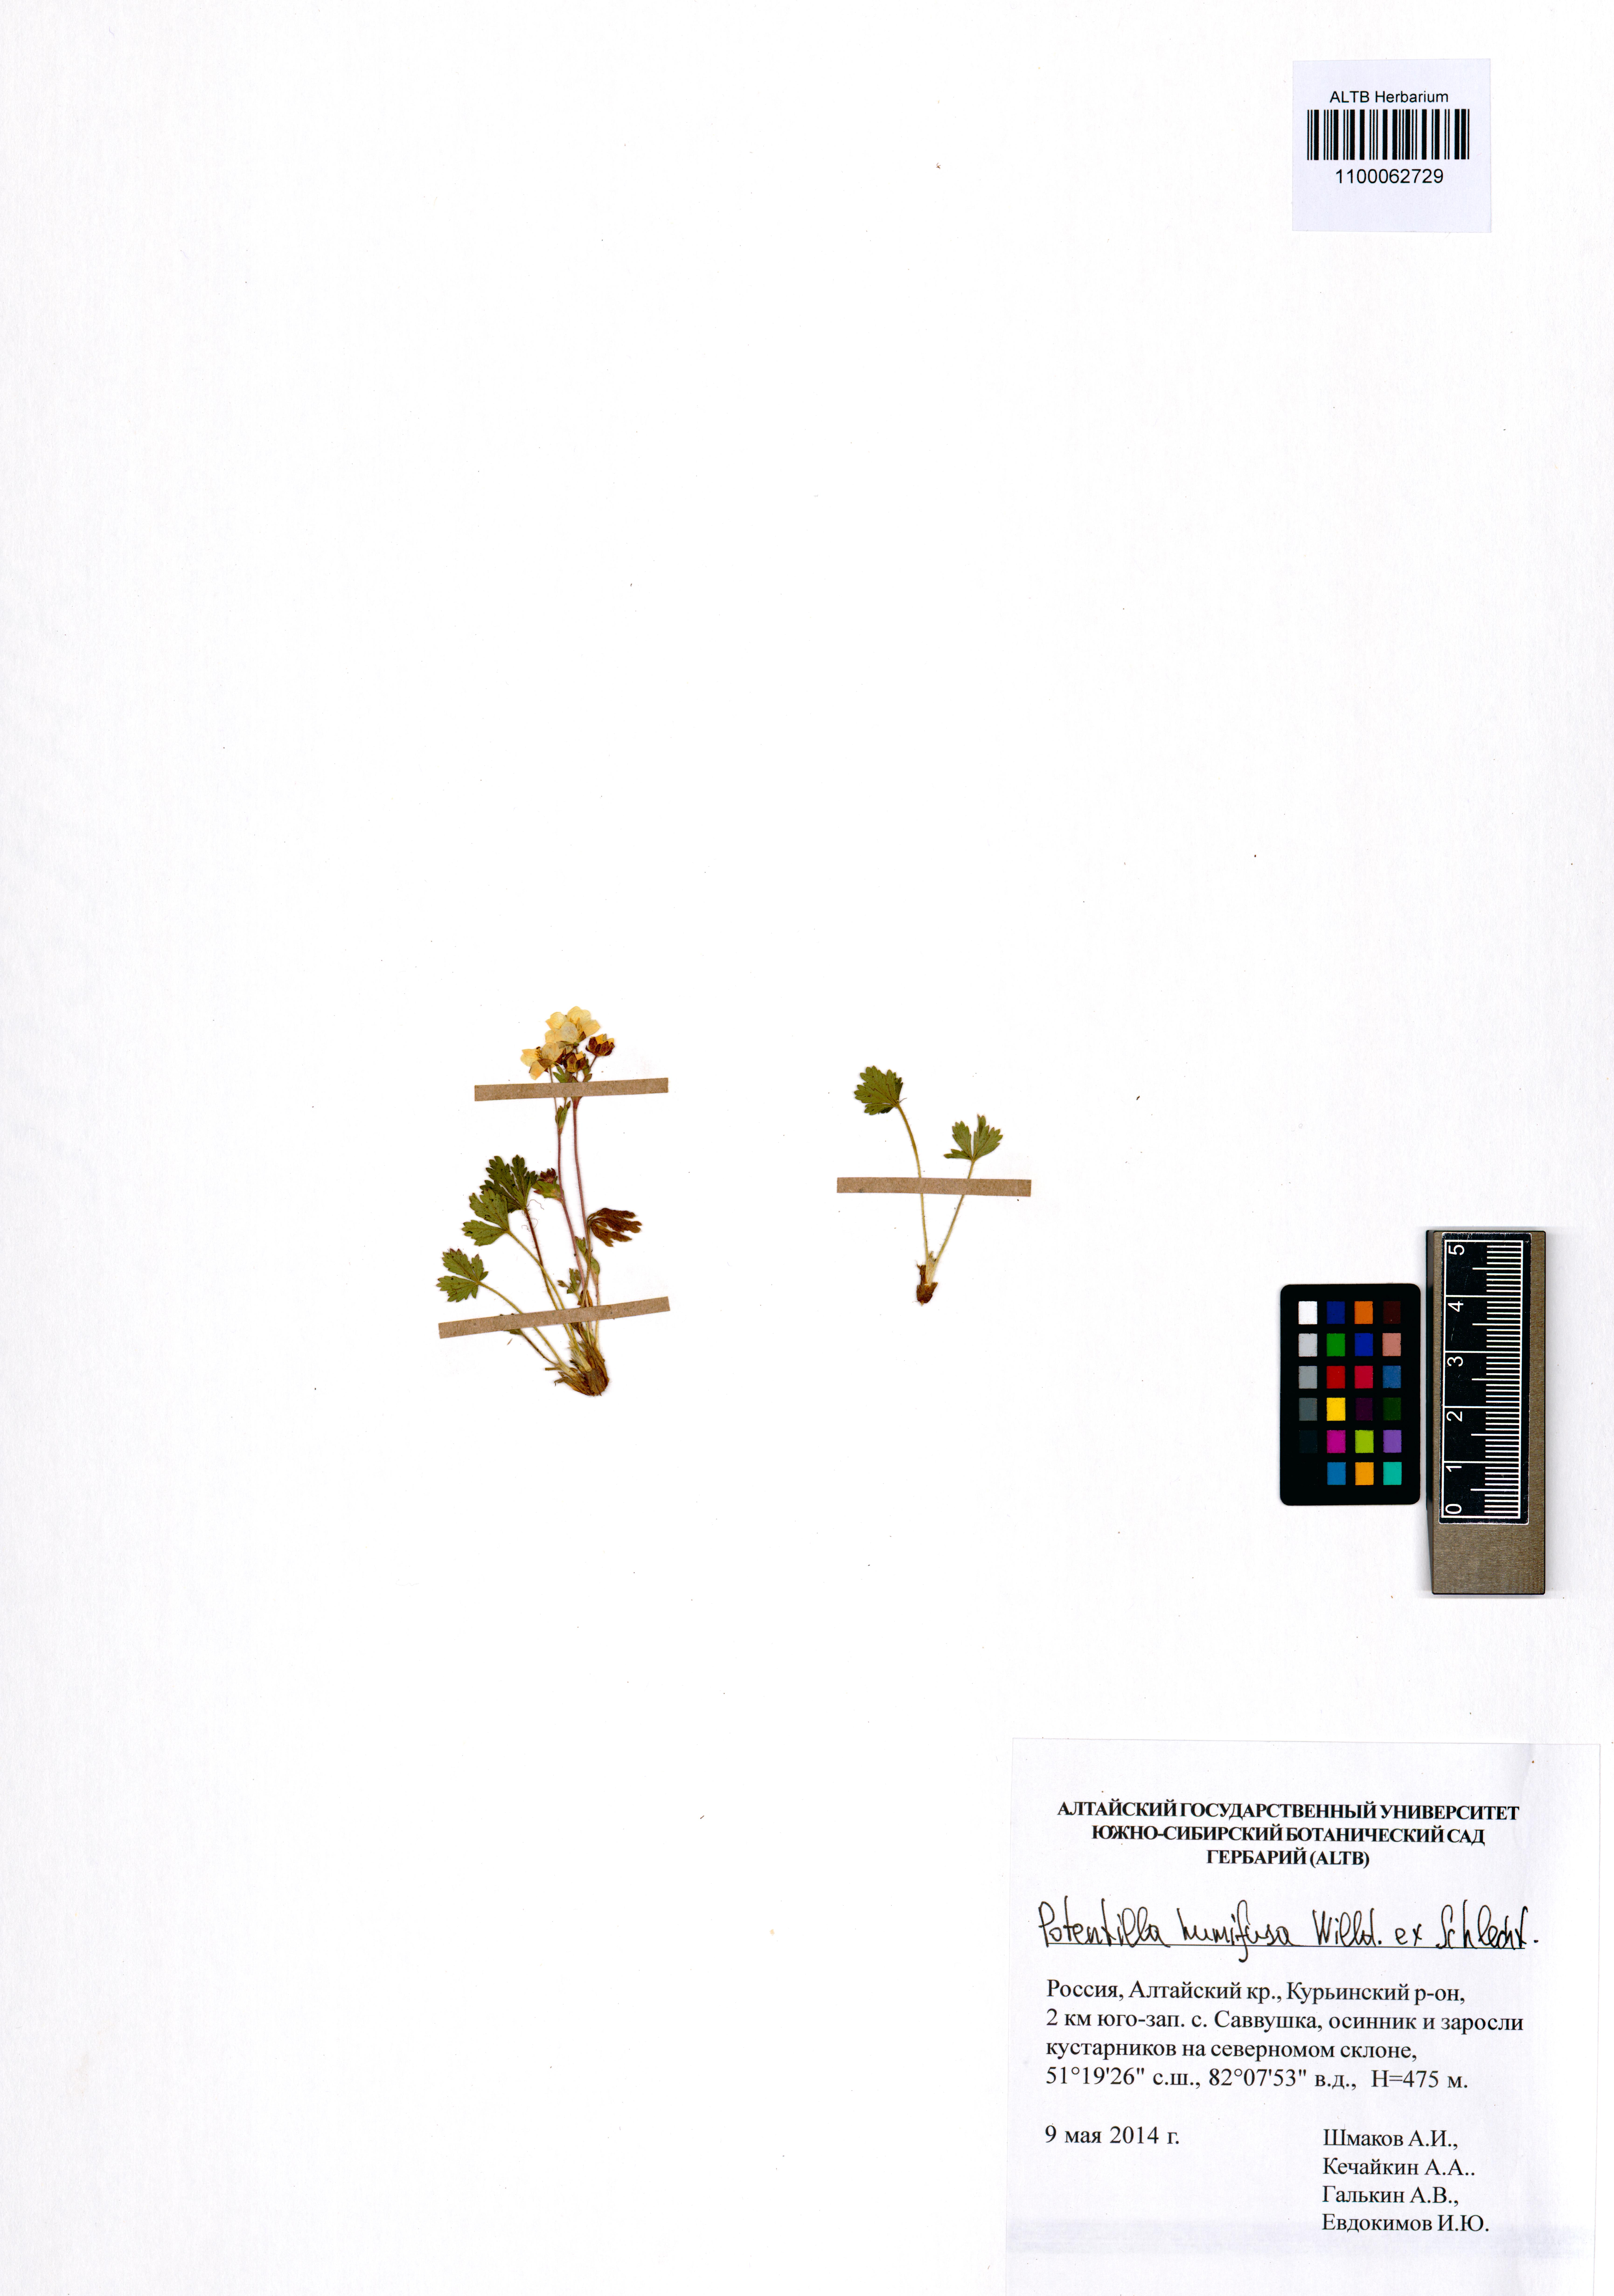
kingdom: Plantae
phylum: Tracheophyta
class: Magnoliopsida
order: Rosales
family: Rosaceae
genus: Potentilla
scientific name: Potentilla humifusa
